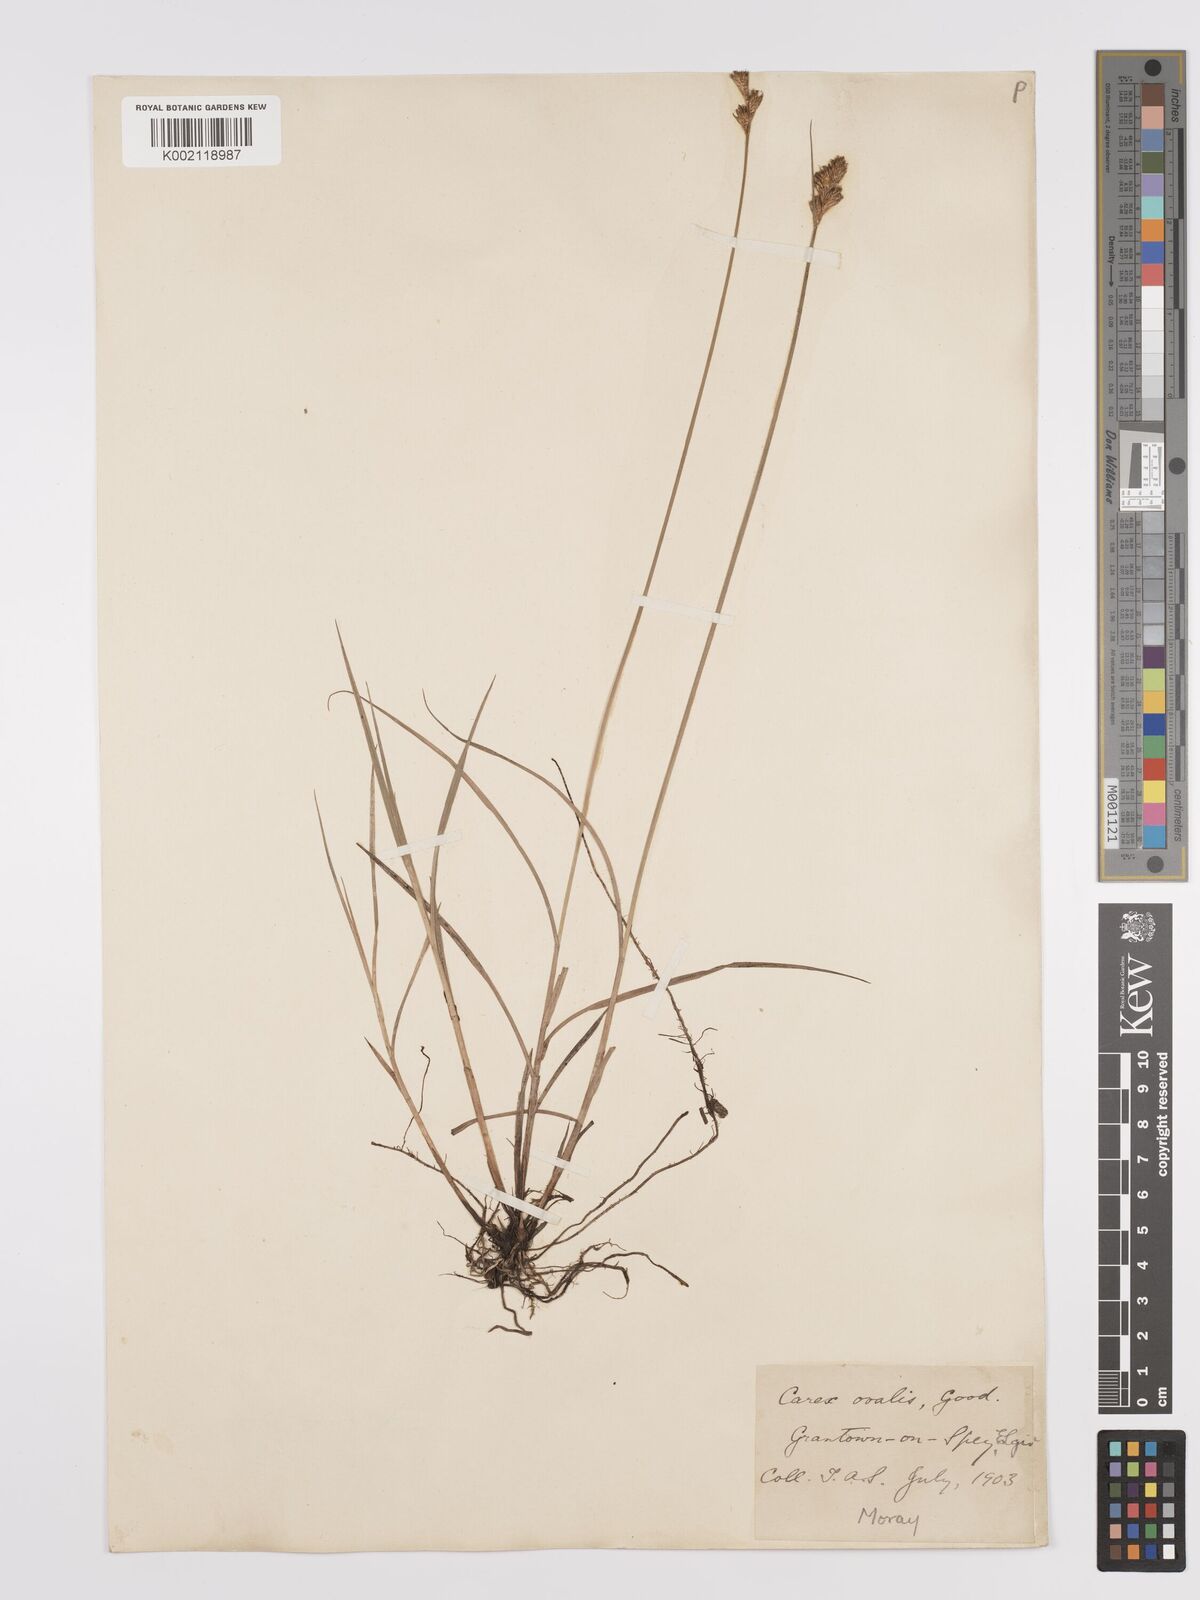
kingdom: Plantae
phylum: Tracheophyta
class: Liliopsida
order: Poales
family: Cyperaceae
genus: Carex
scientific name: Carex leporina
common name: Oval sedge
